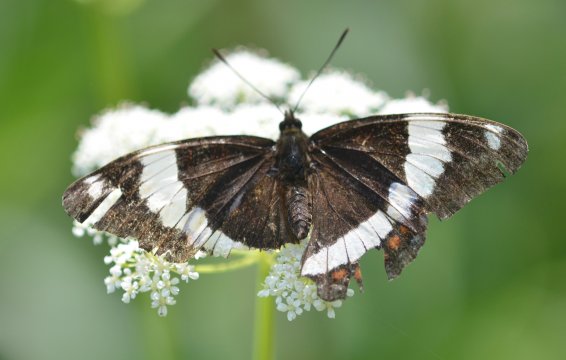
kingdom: Animalia
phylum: Arthropoda
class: Insecta
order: Lepidoptera
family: Nymphalidae
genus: Limenitis
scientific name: Limenitis arthemis
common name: Red-spotted Admiral
